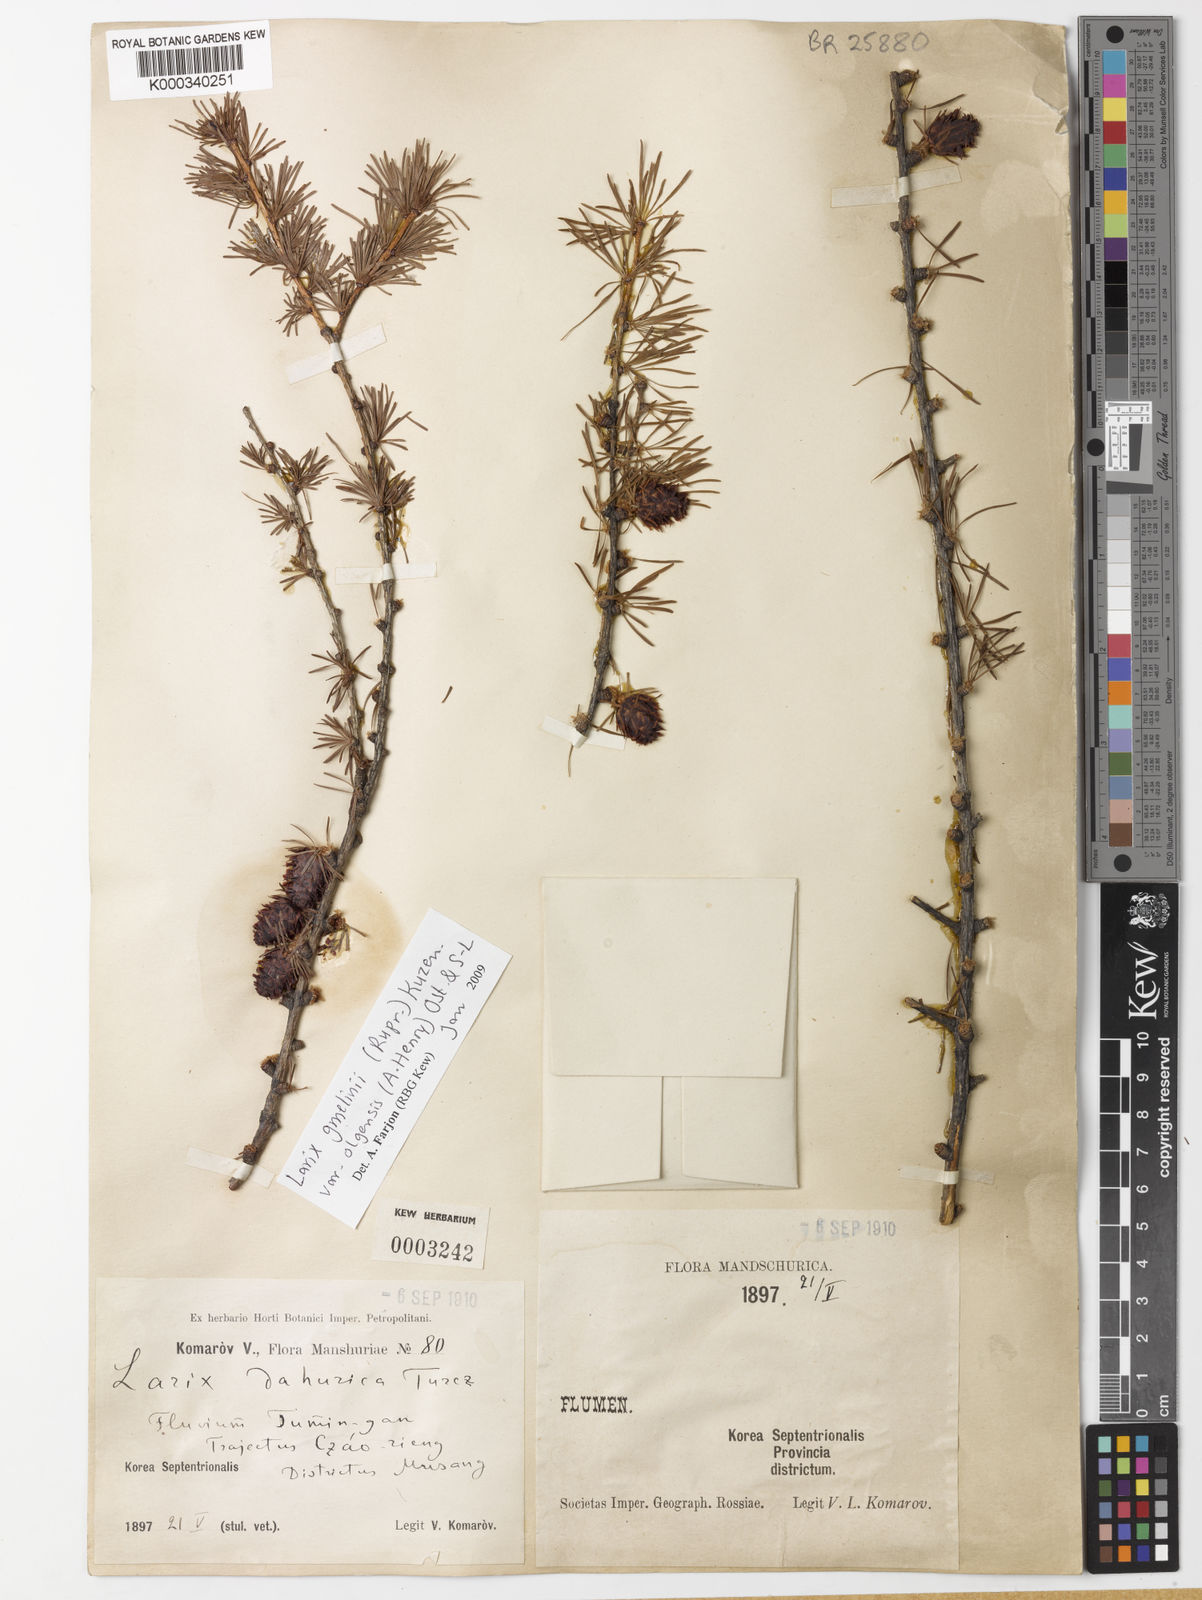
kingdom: Plantae
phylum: Tracheophyta
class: Pinopsida
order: Pinales
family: Pinaceae
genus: Larix
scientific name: Larix gmelinii
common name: Dahurian larch
